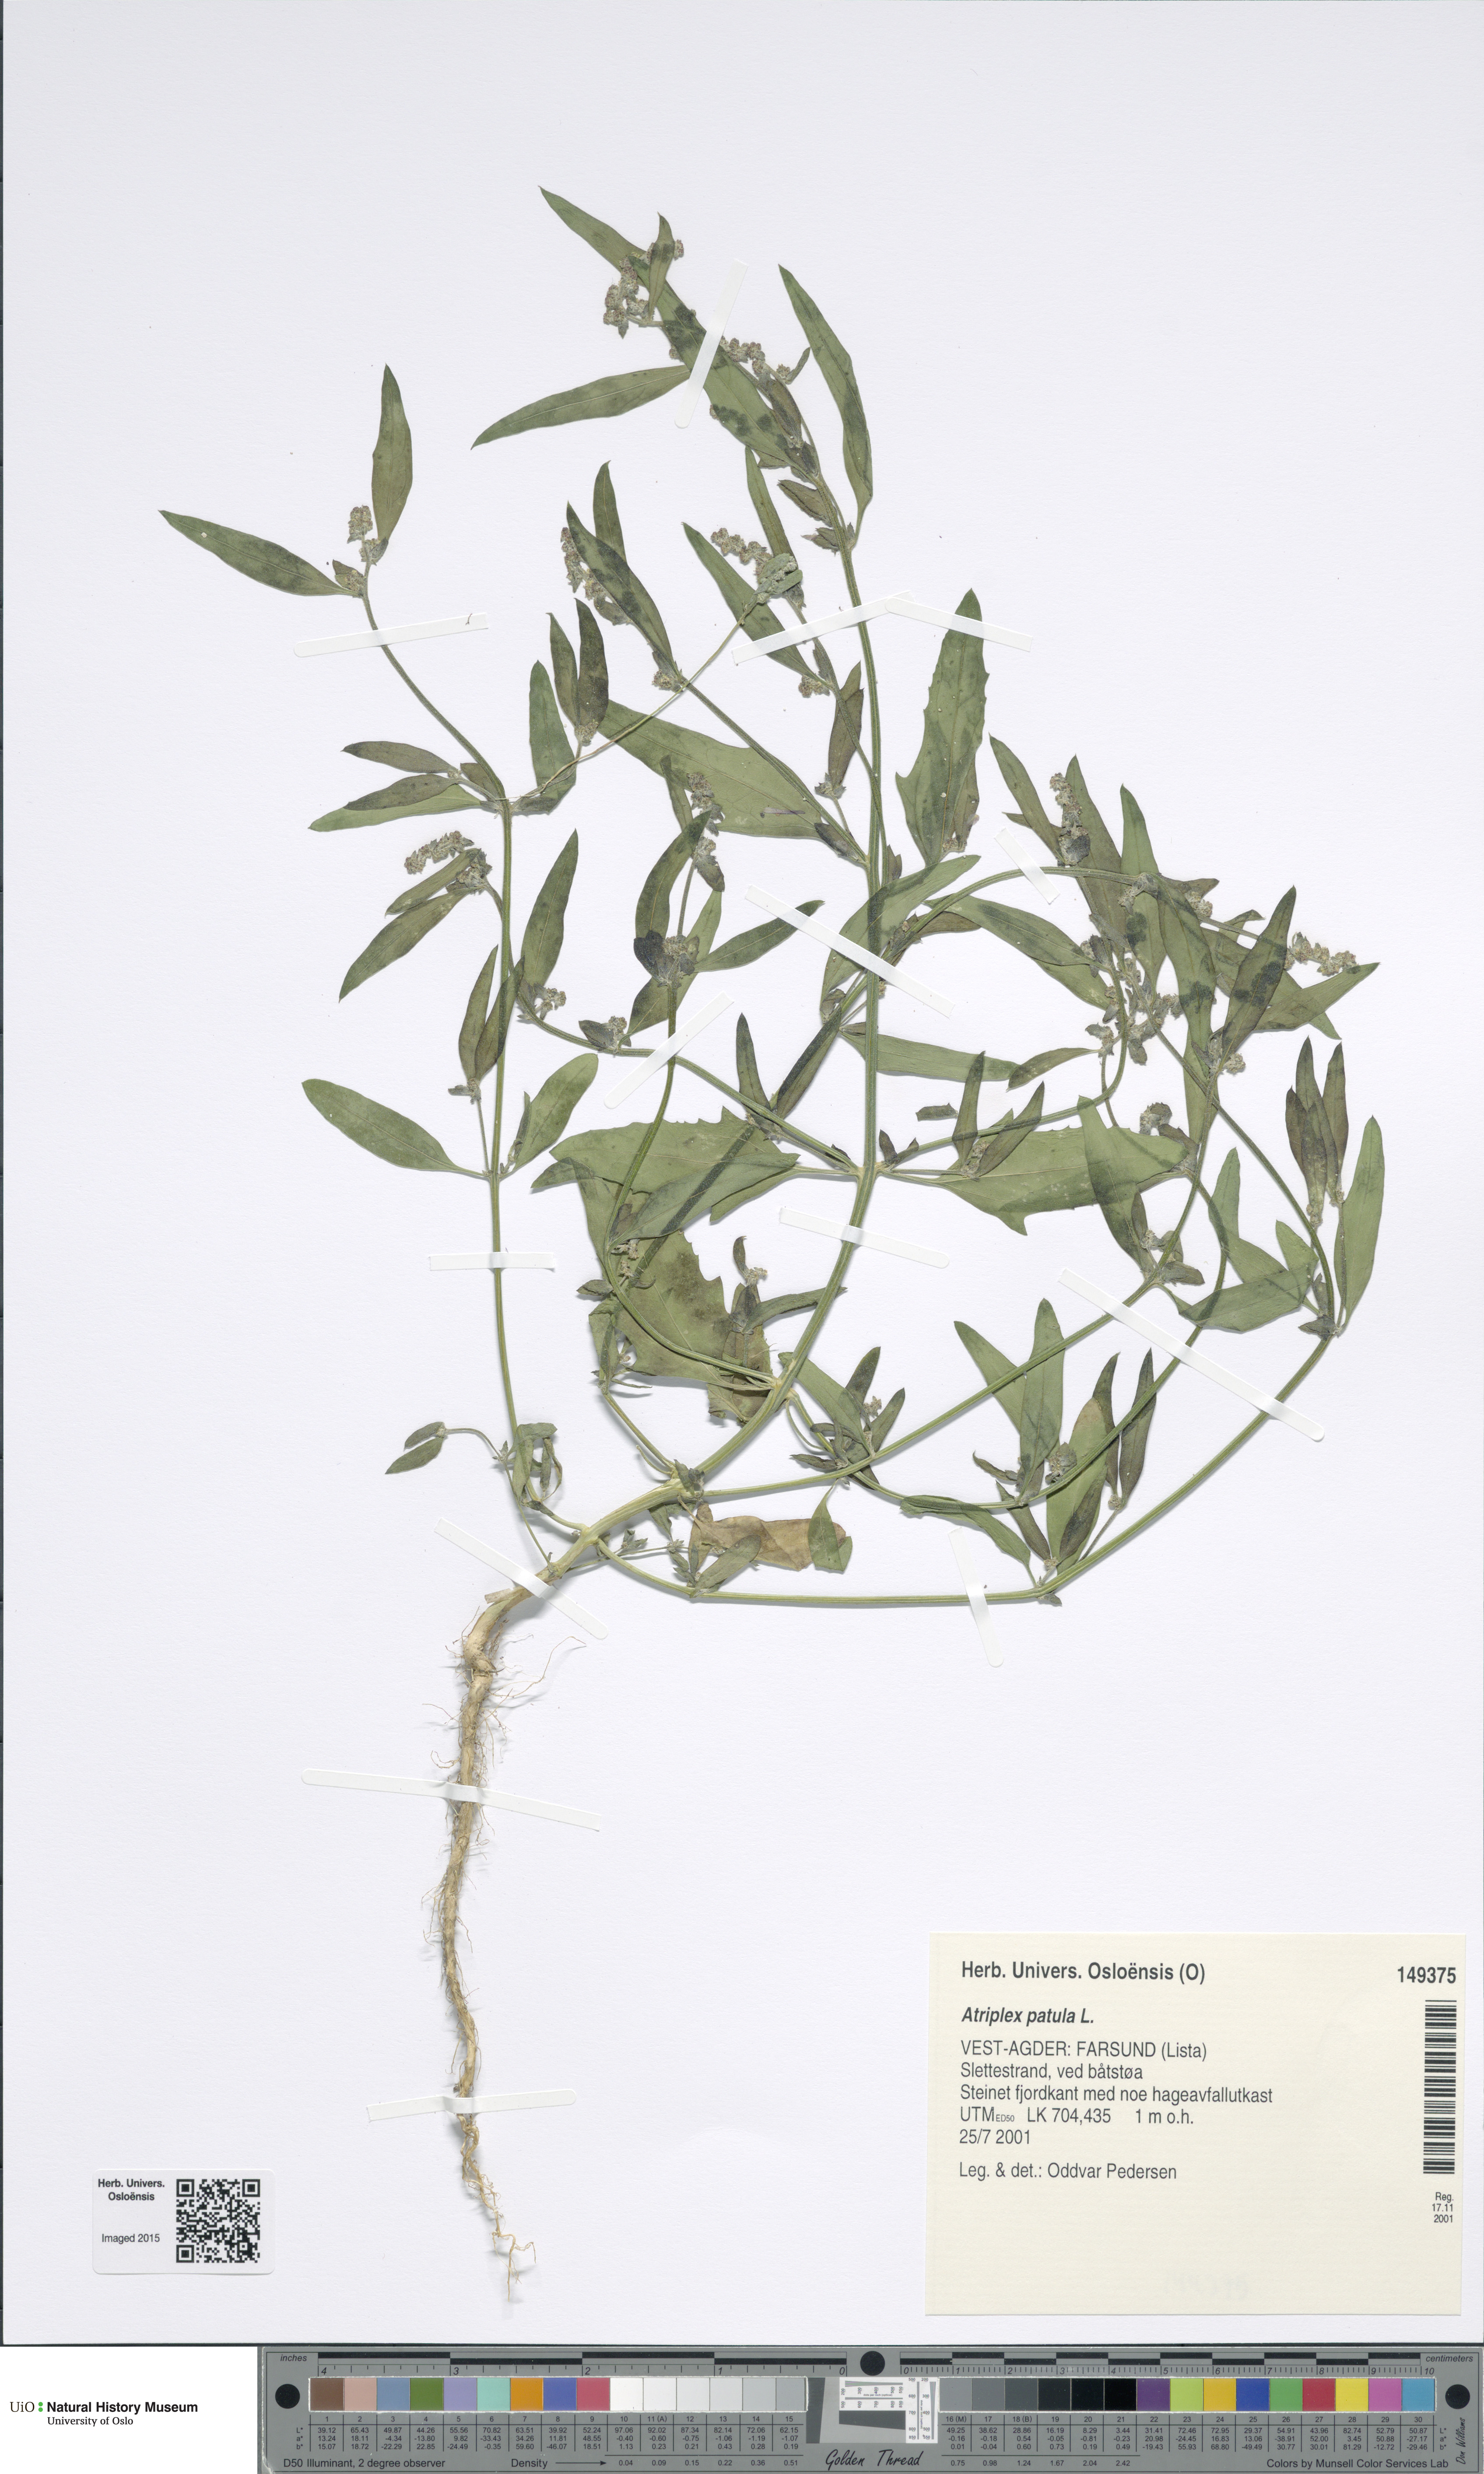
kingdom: Plantae
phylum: Tracheophyta
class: Magnoliopsida
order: Caryophyllales
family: Amaranthaceae
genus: Atriplex
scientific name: Atriplex patula
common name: Common orache
